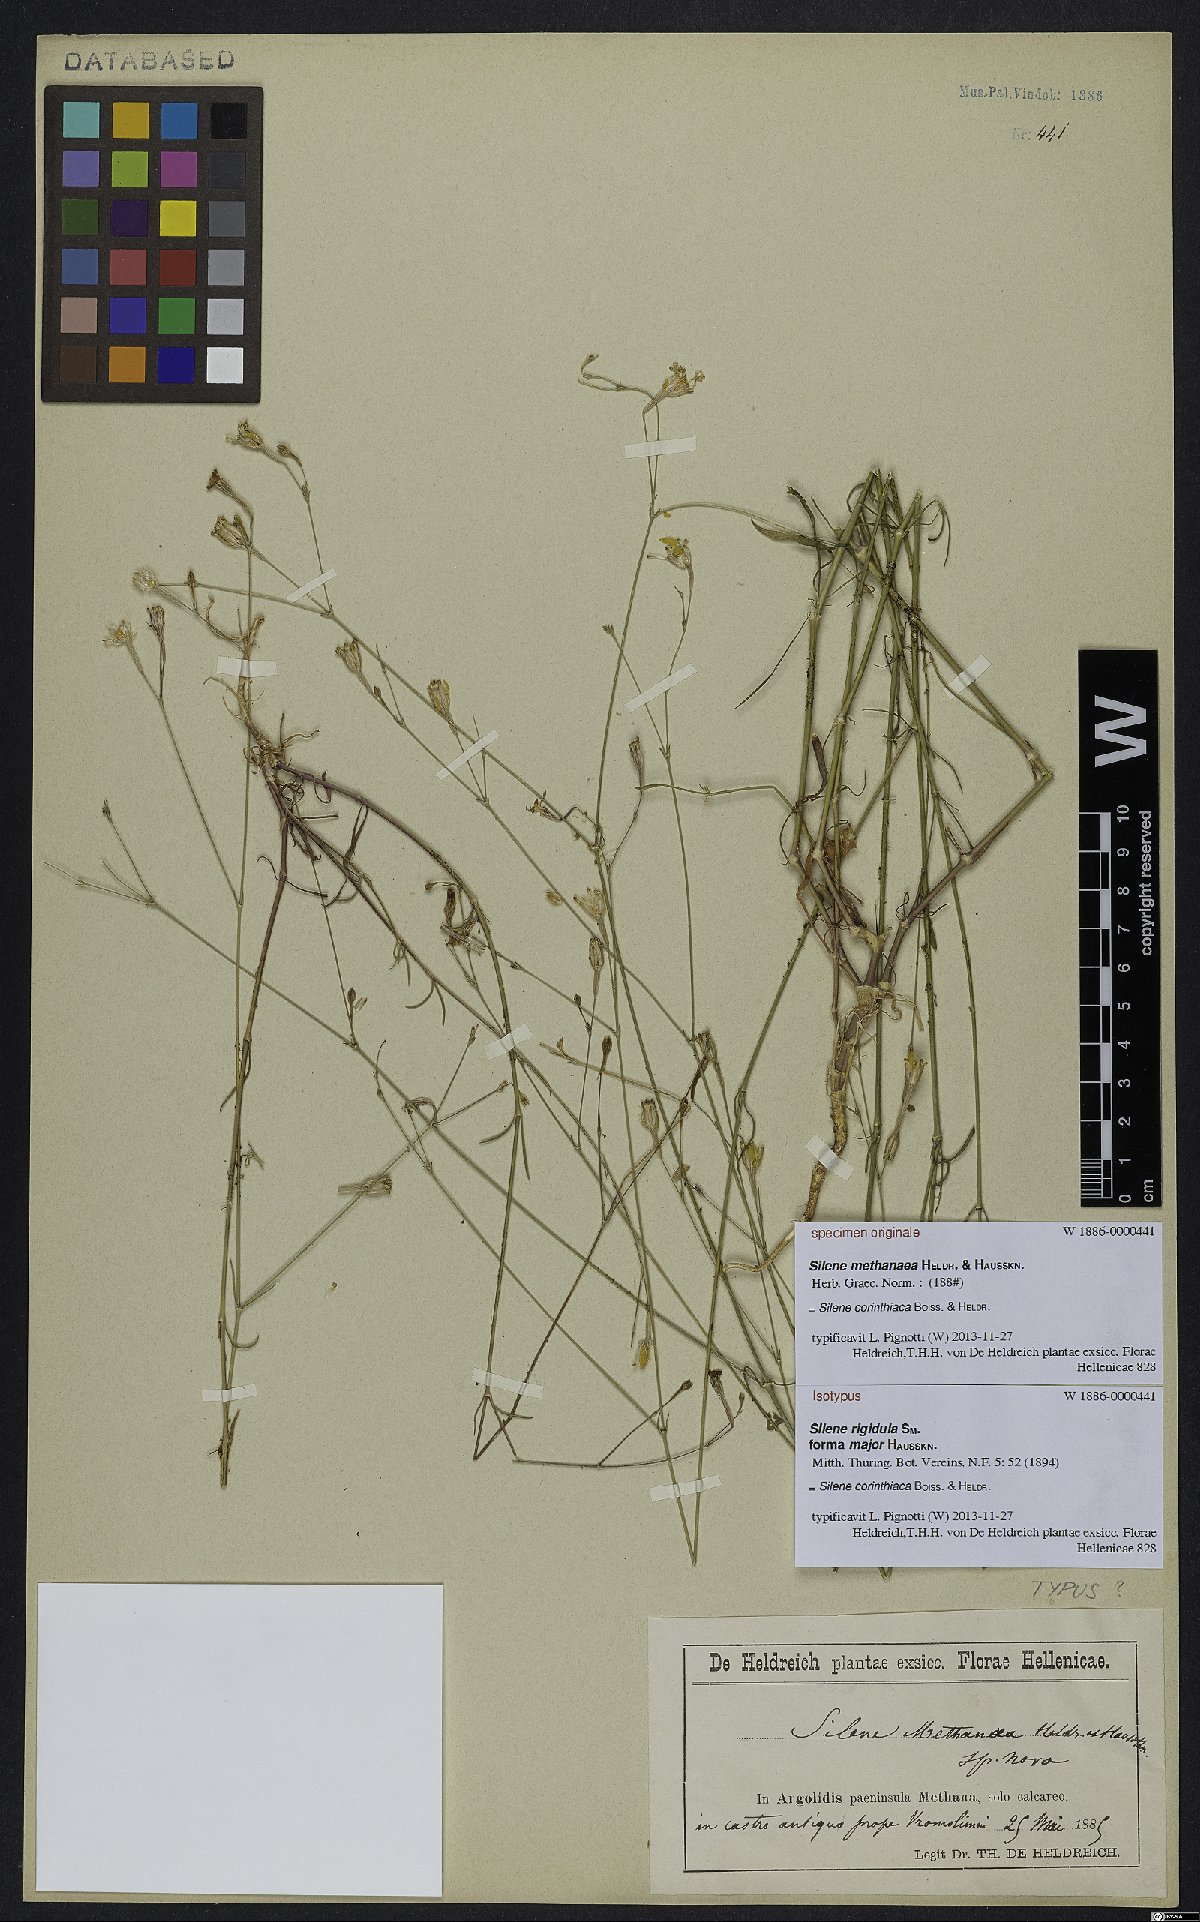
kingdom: Plantae
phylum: Tracheophyta
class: Magnoliopsida
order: Caryophyllales
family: Caryophyllaceae
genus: Silene
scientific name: Silene corinthiaca
